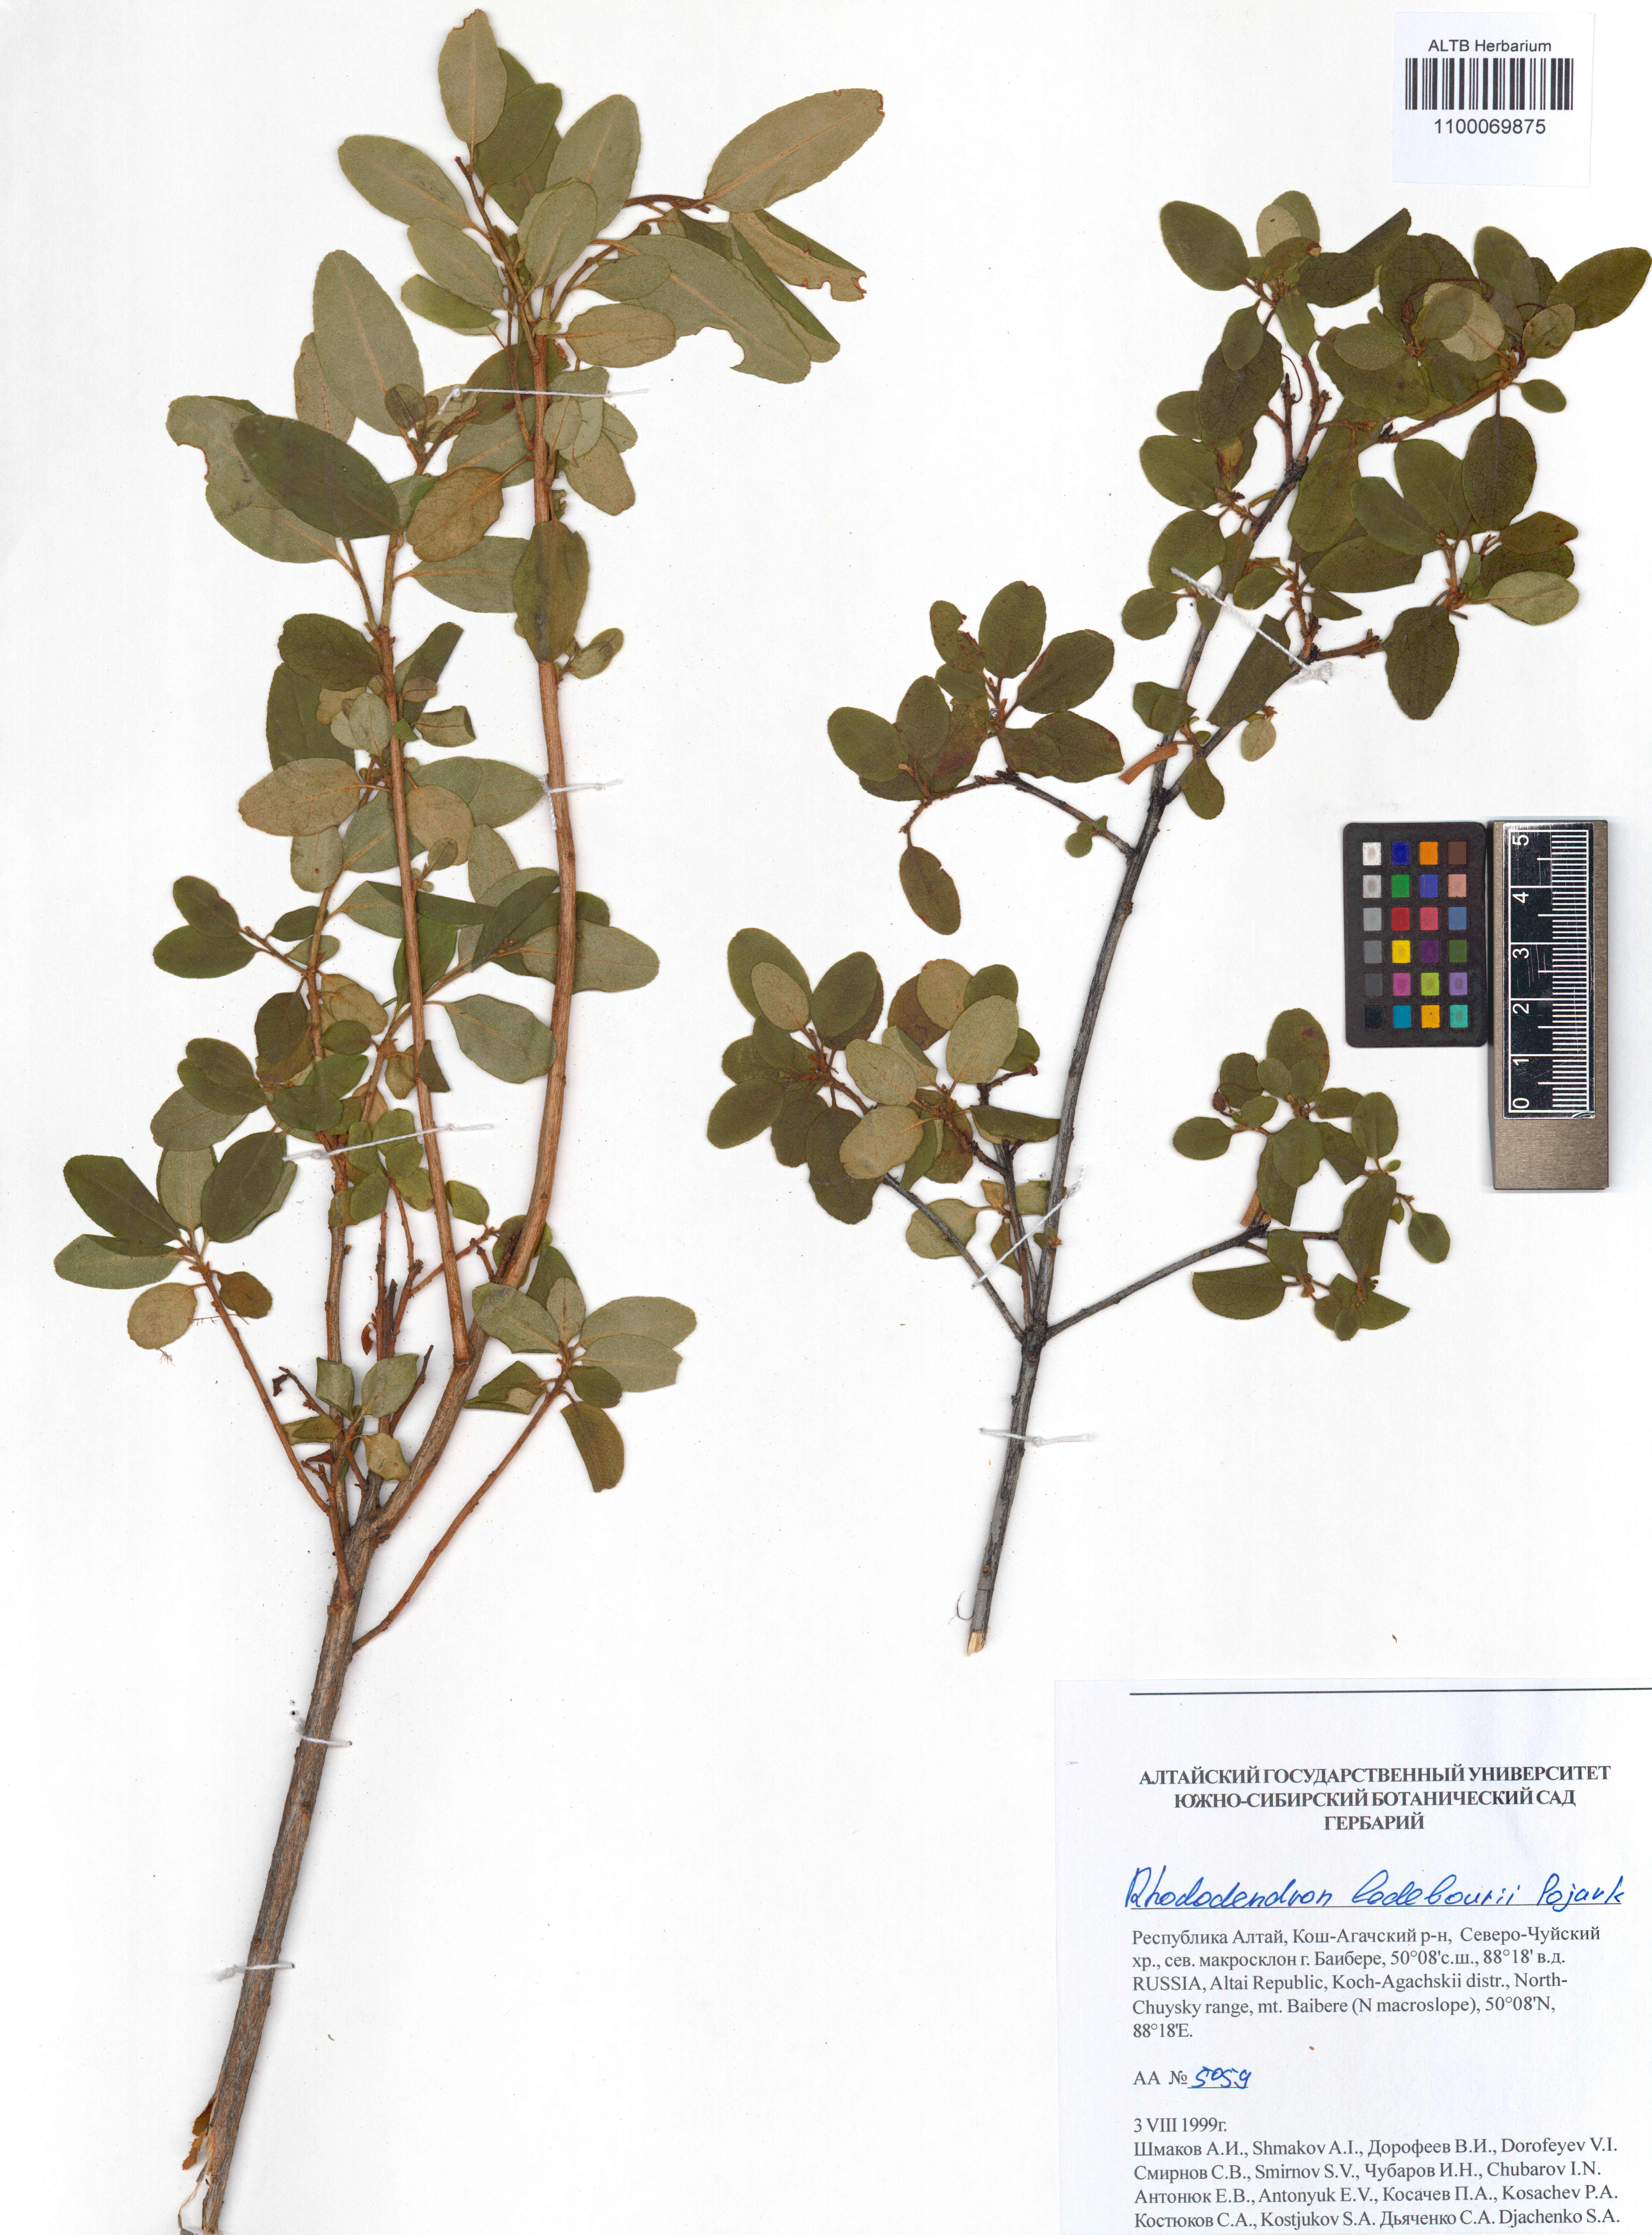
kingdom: Plantae
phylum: Tracheophyta
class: Magnoliopsida
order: Ericales
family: Ericaceae
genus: Rhododendron
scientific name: Rhododendron dauricum
